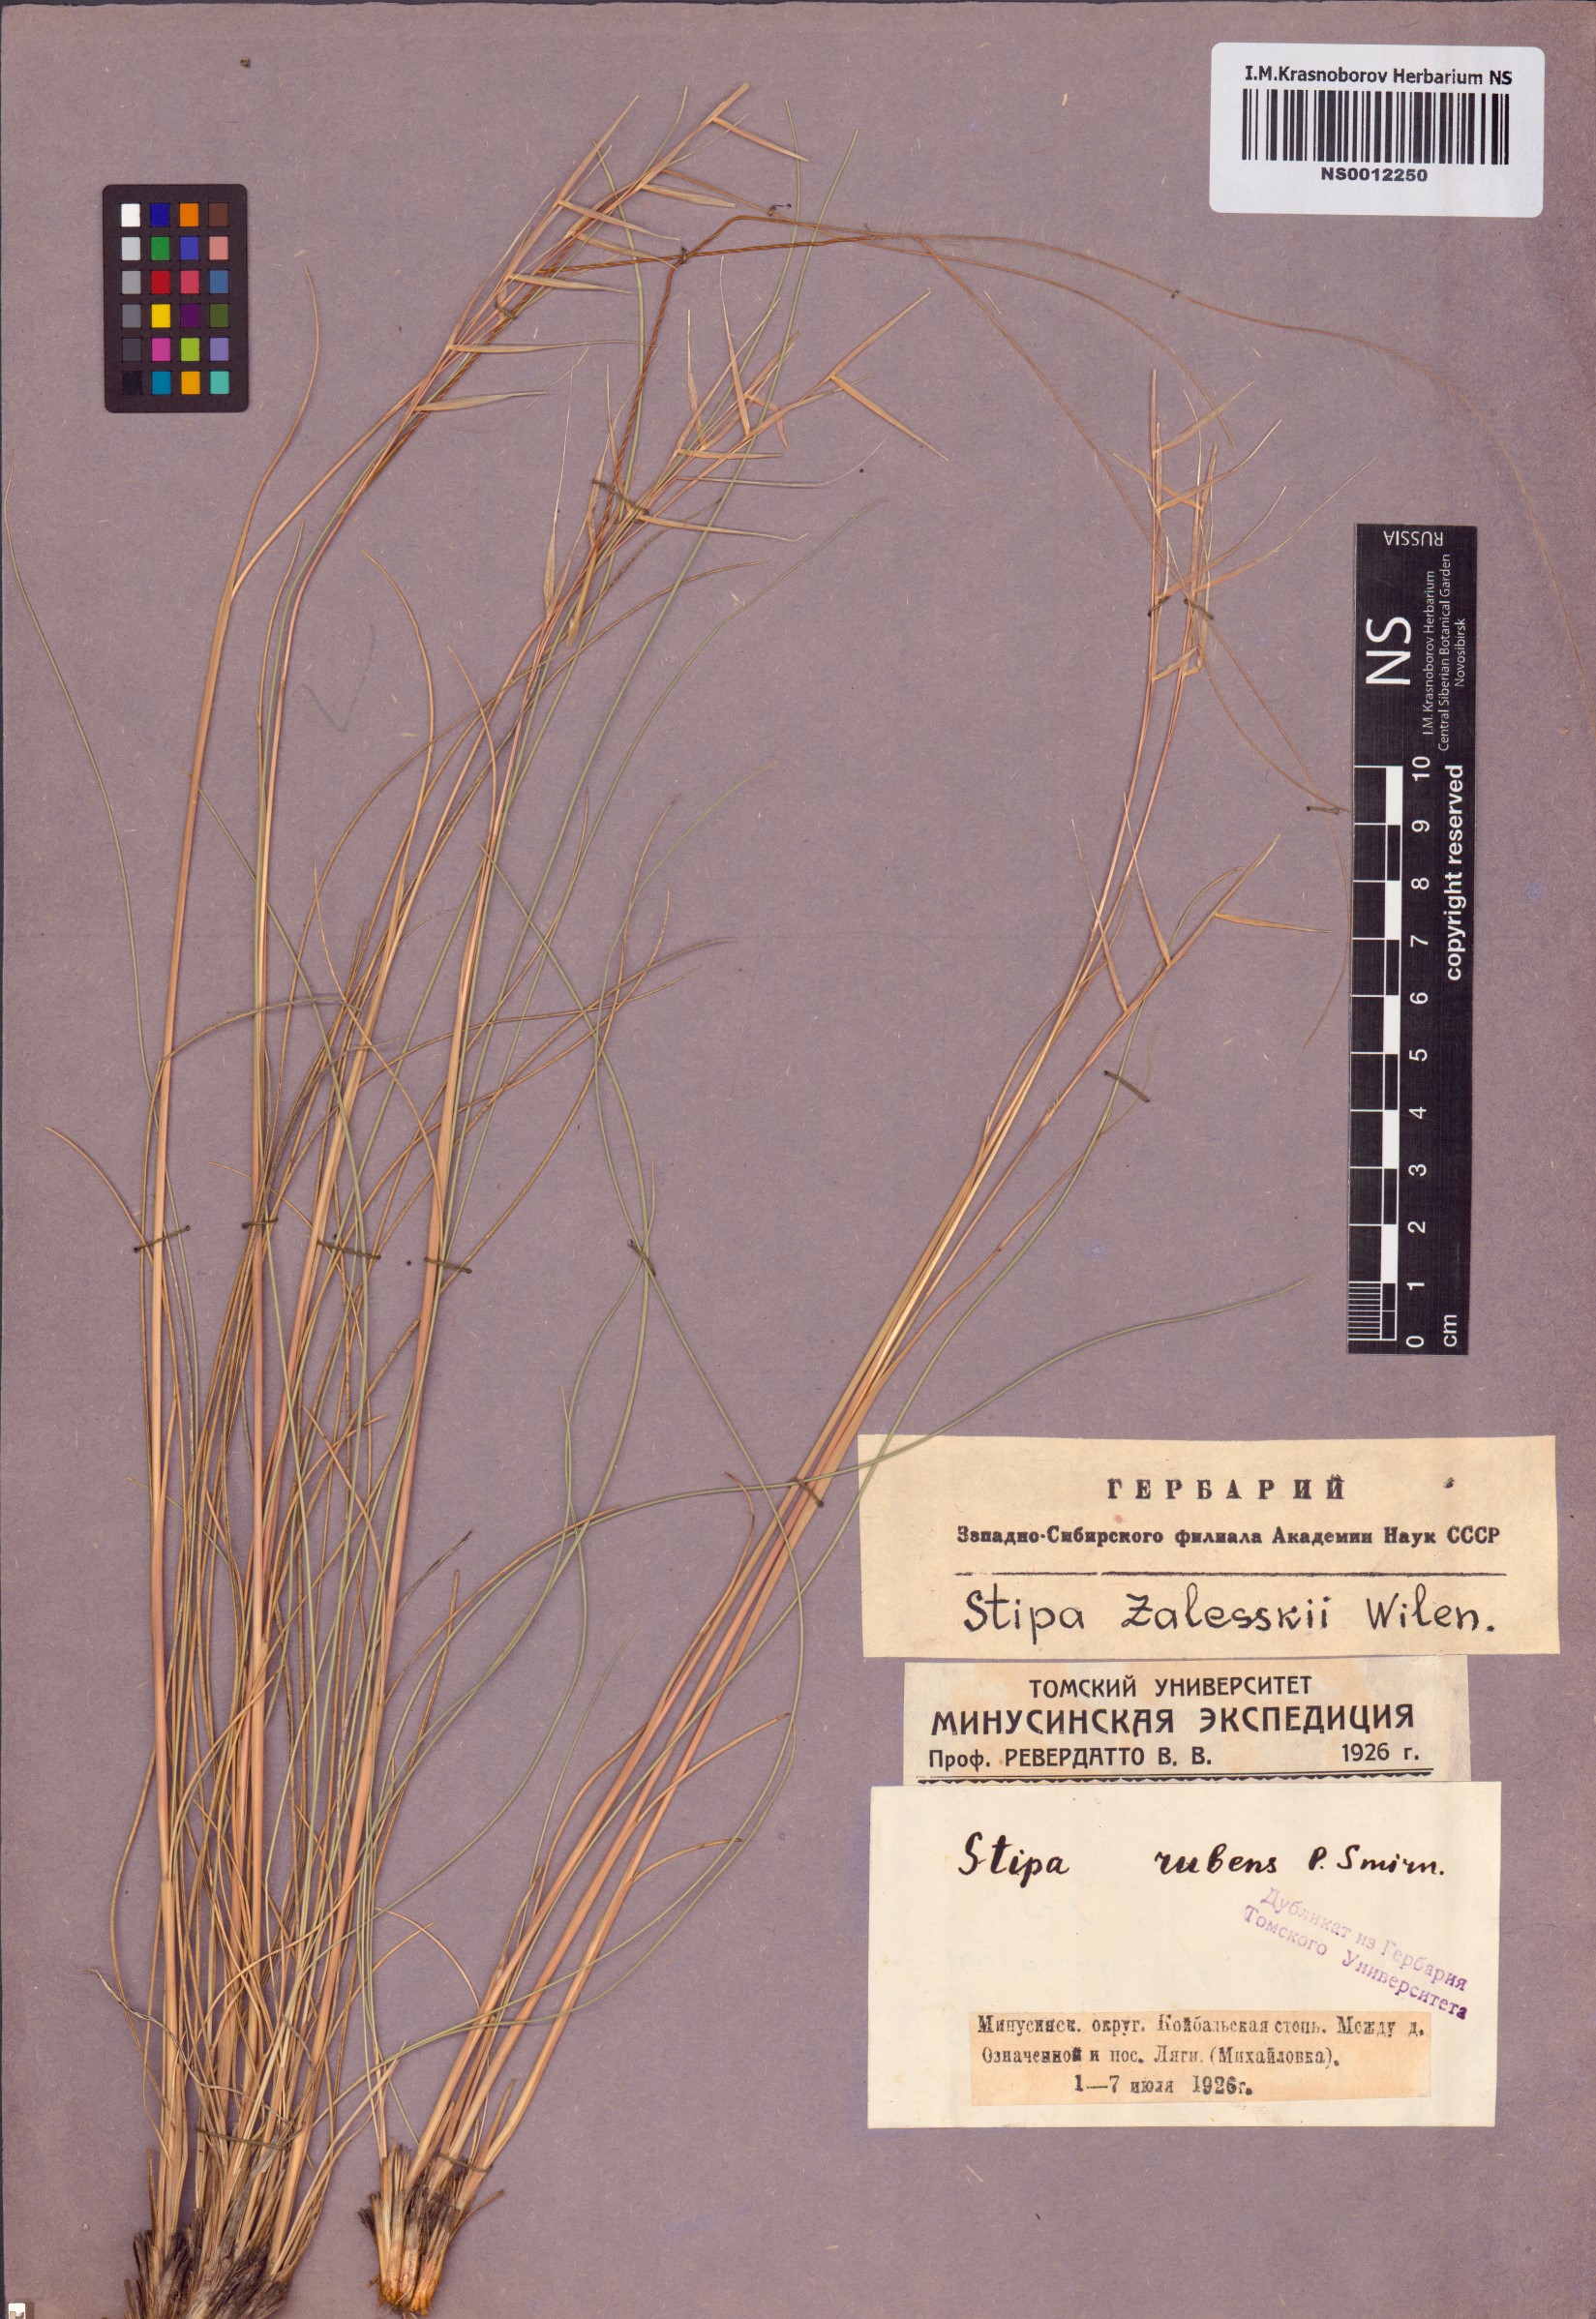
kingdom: Plantae
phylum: Tracheophyta
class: Liliopsida
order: Poales
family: Poaceae
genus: Stipa
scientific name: Stipa zalesskii
